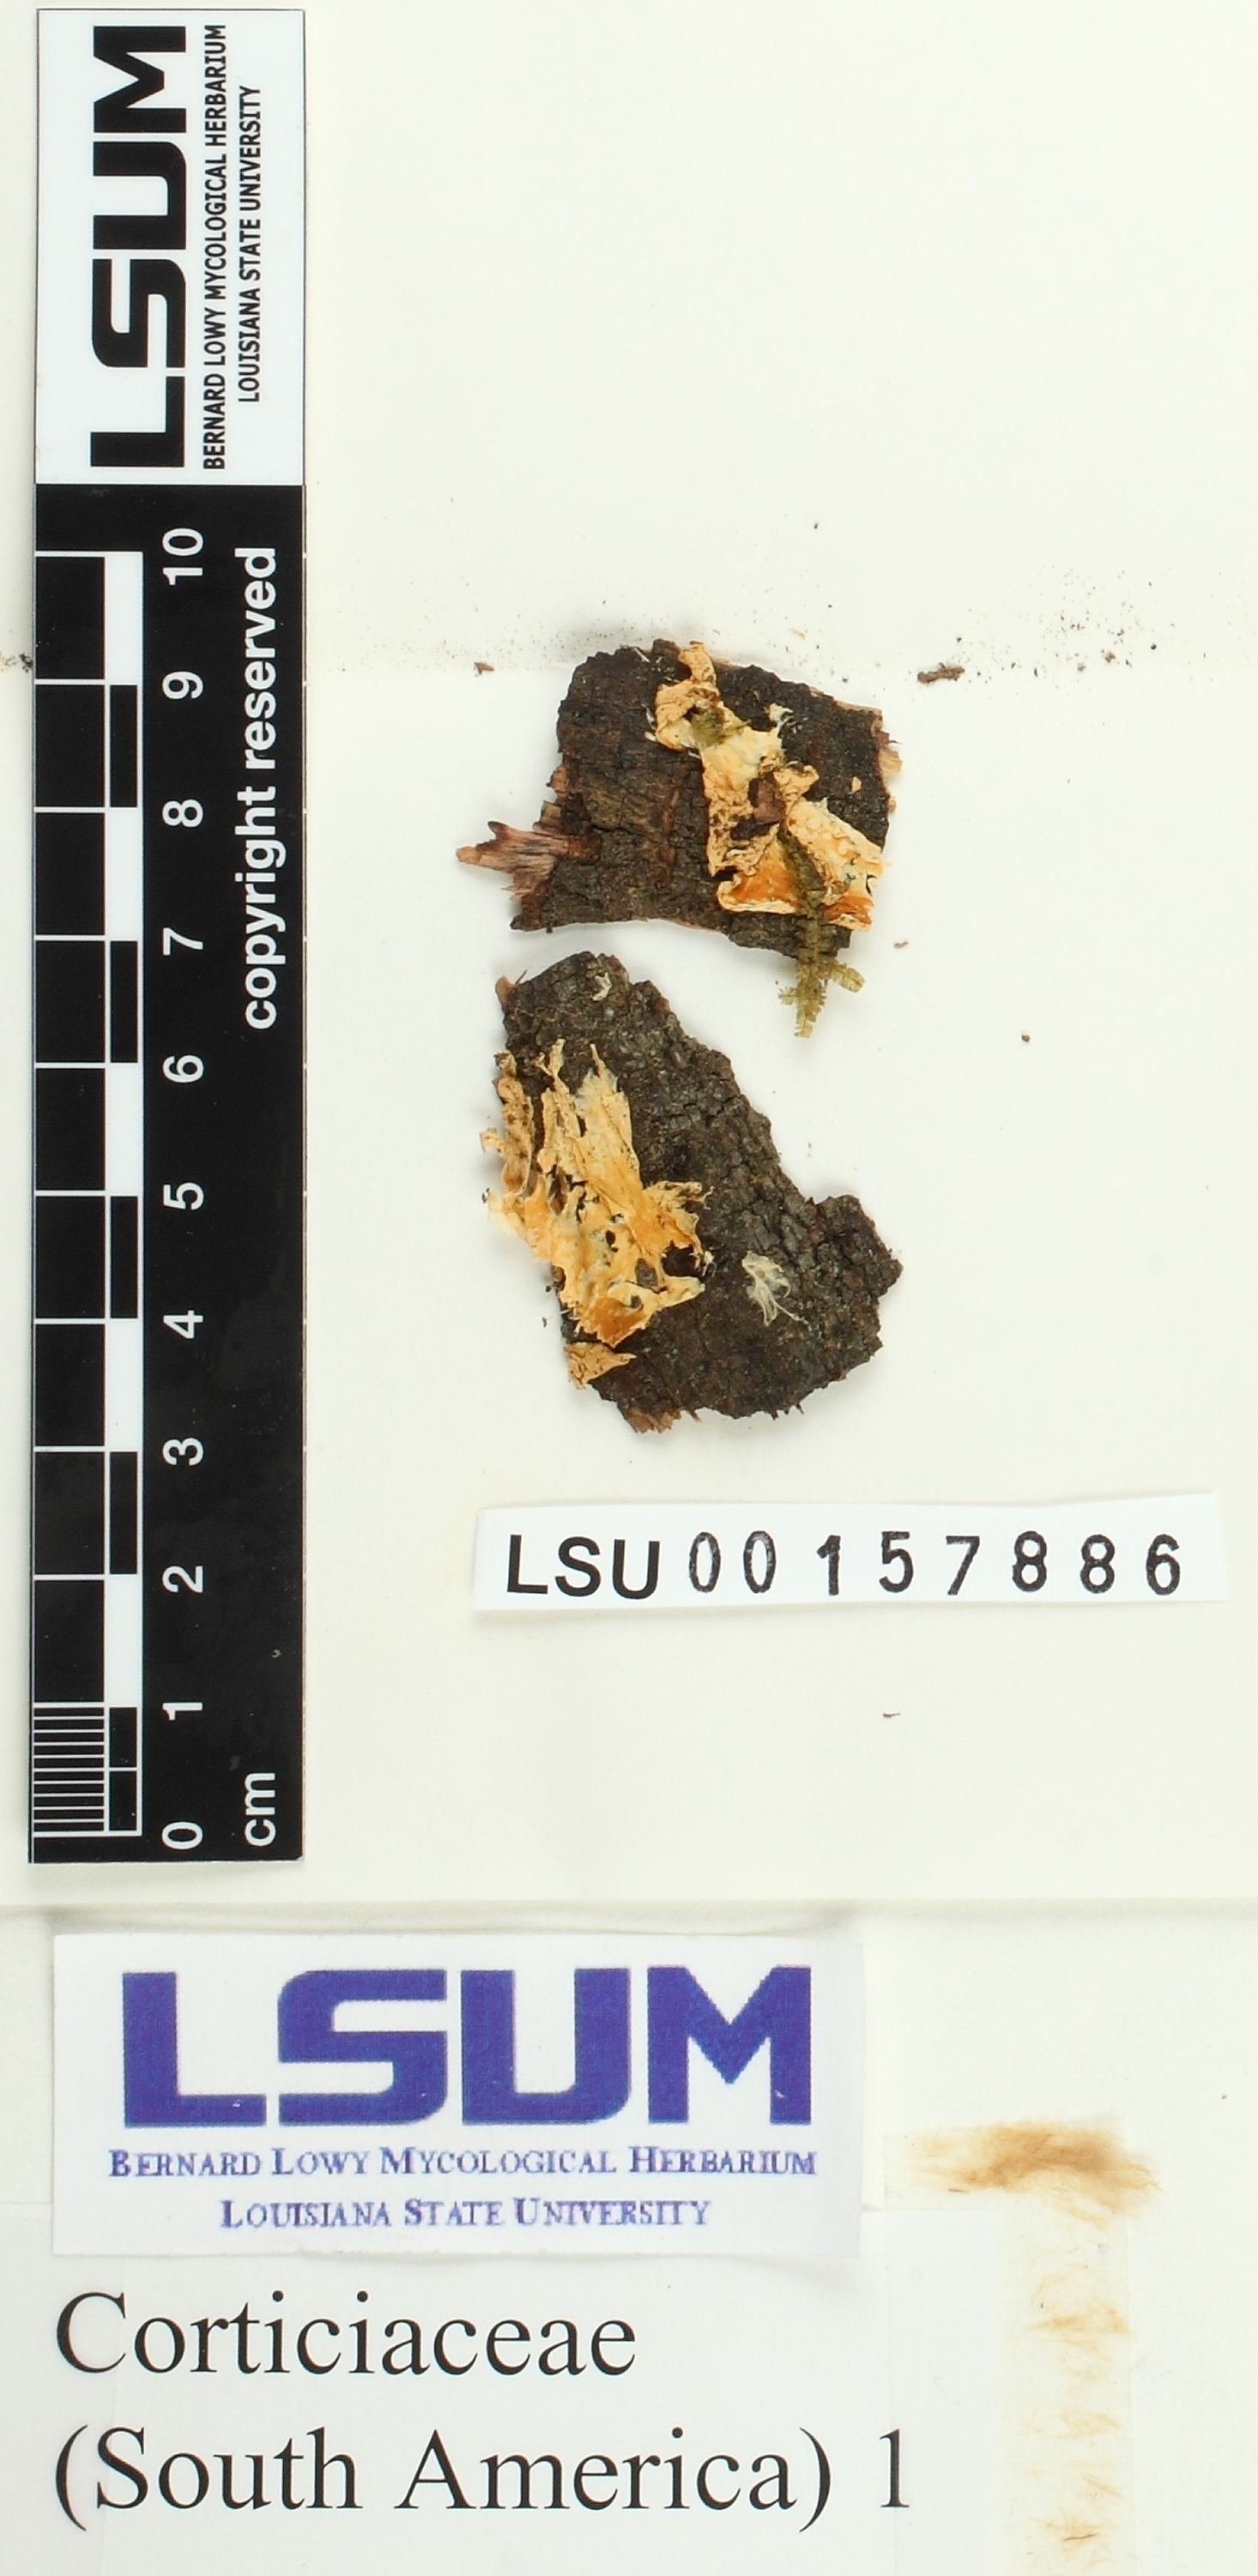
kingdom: Fungi
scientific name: Fungi
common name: Fungi
